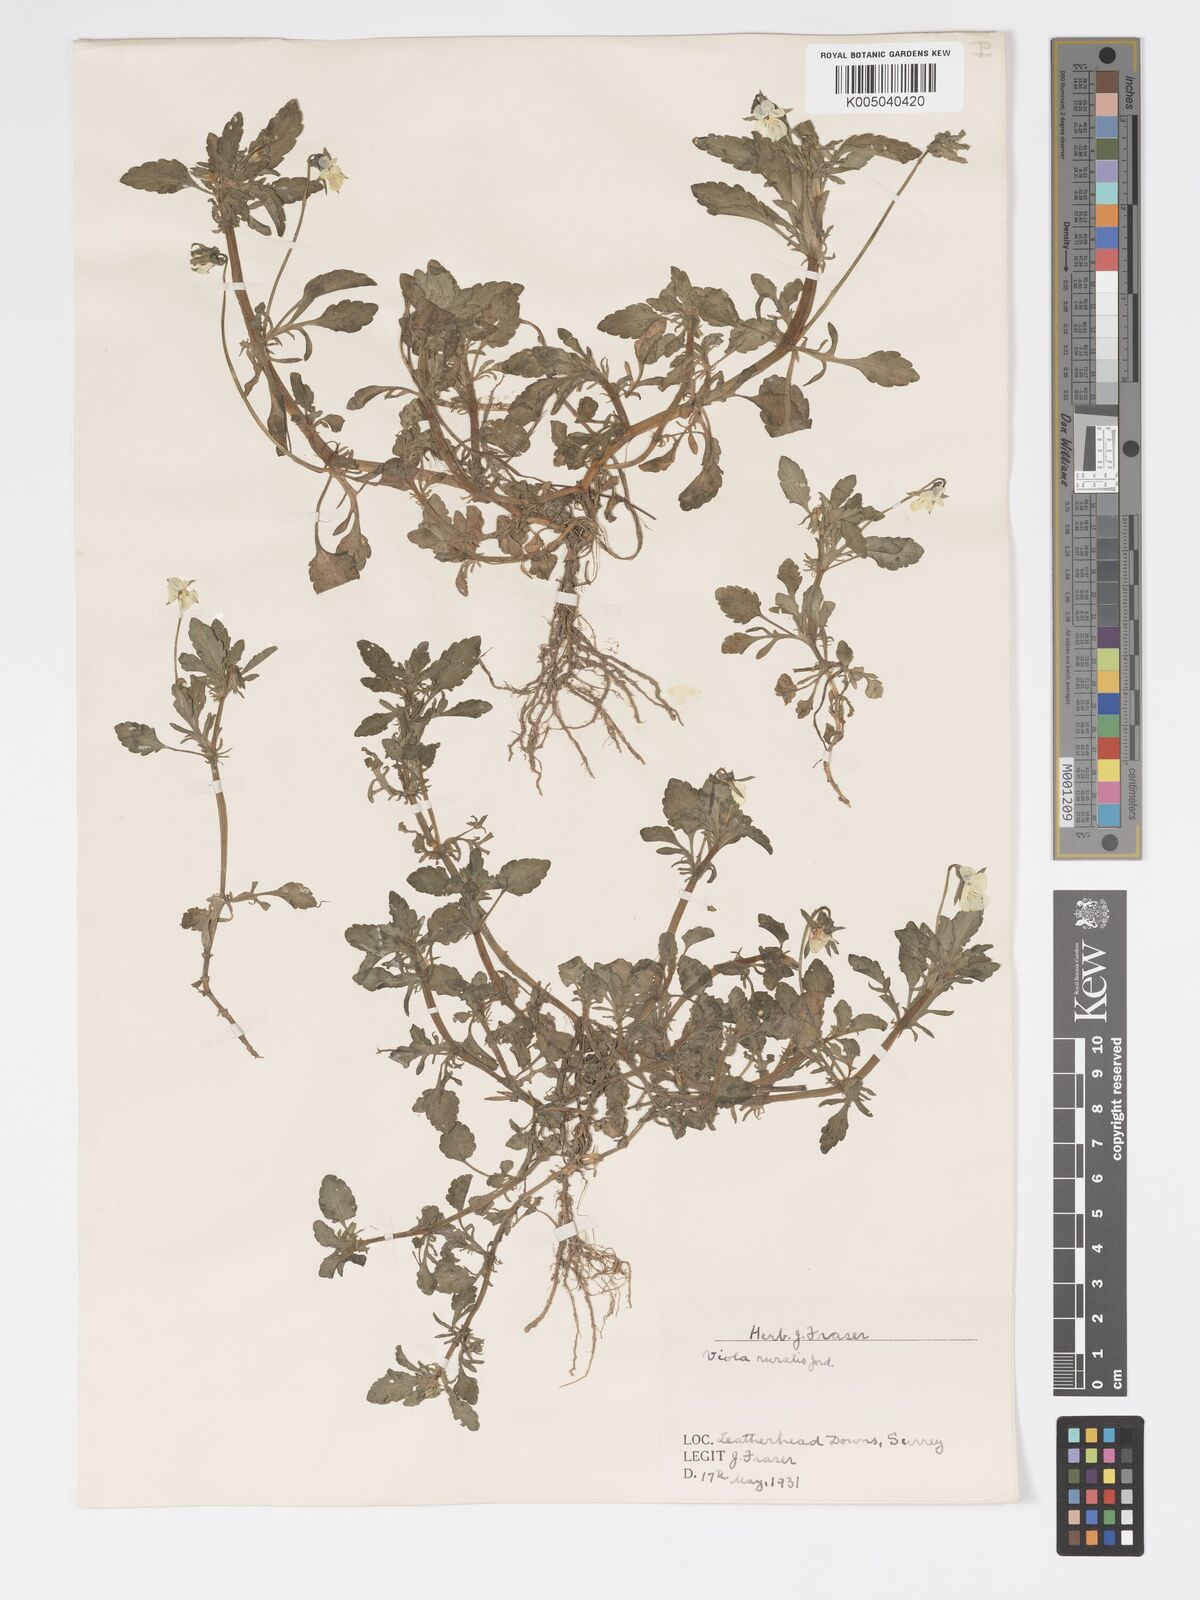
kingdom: Plantae
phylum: Tracheophyta
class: Magnoliopsida
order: Malpighiales
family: Violaceae
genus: Viola
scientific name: Viola arvensis
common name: Field pansy
